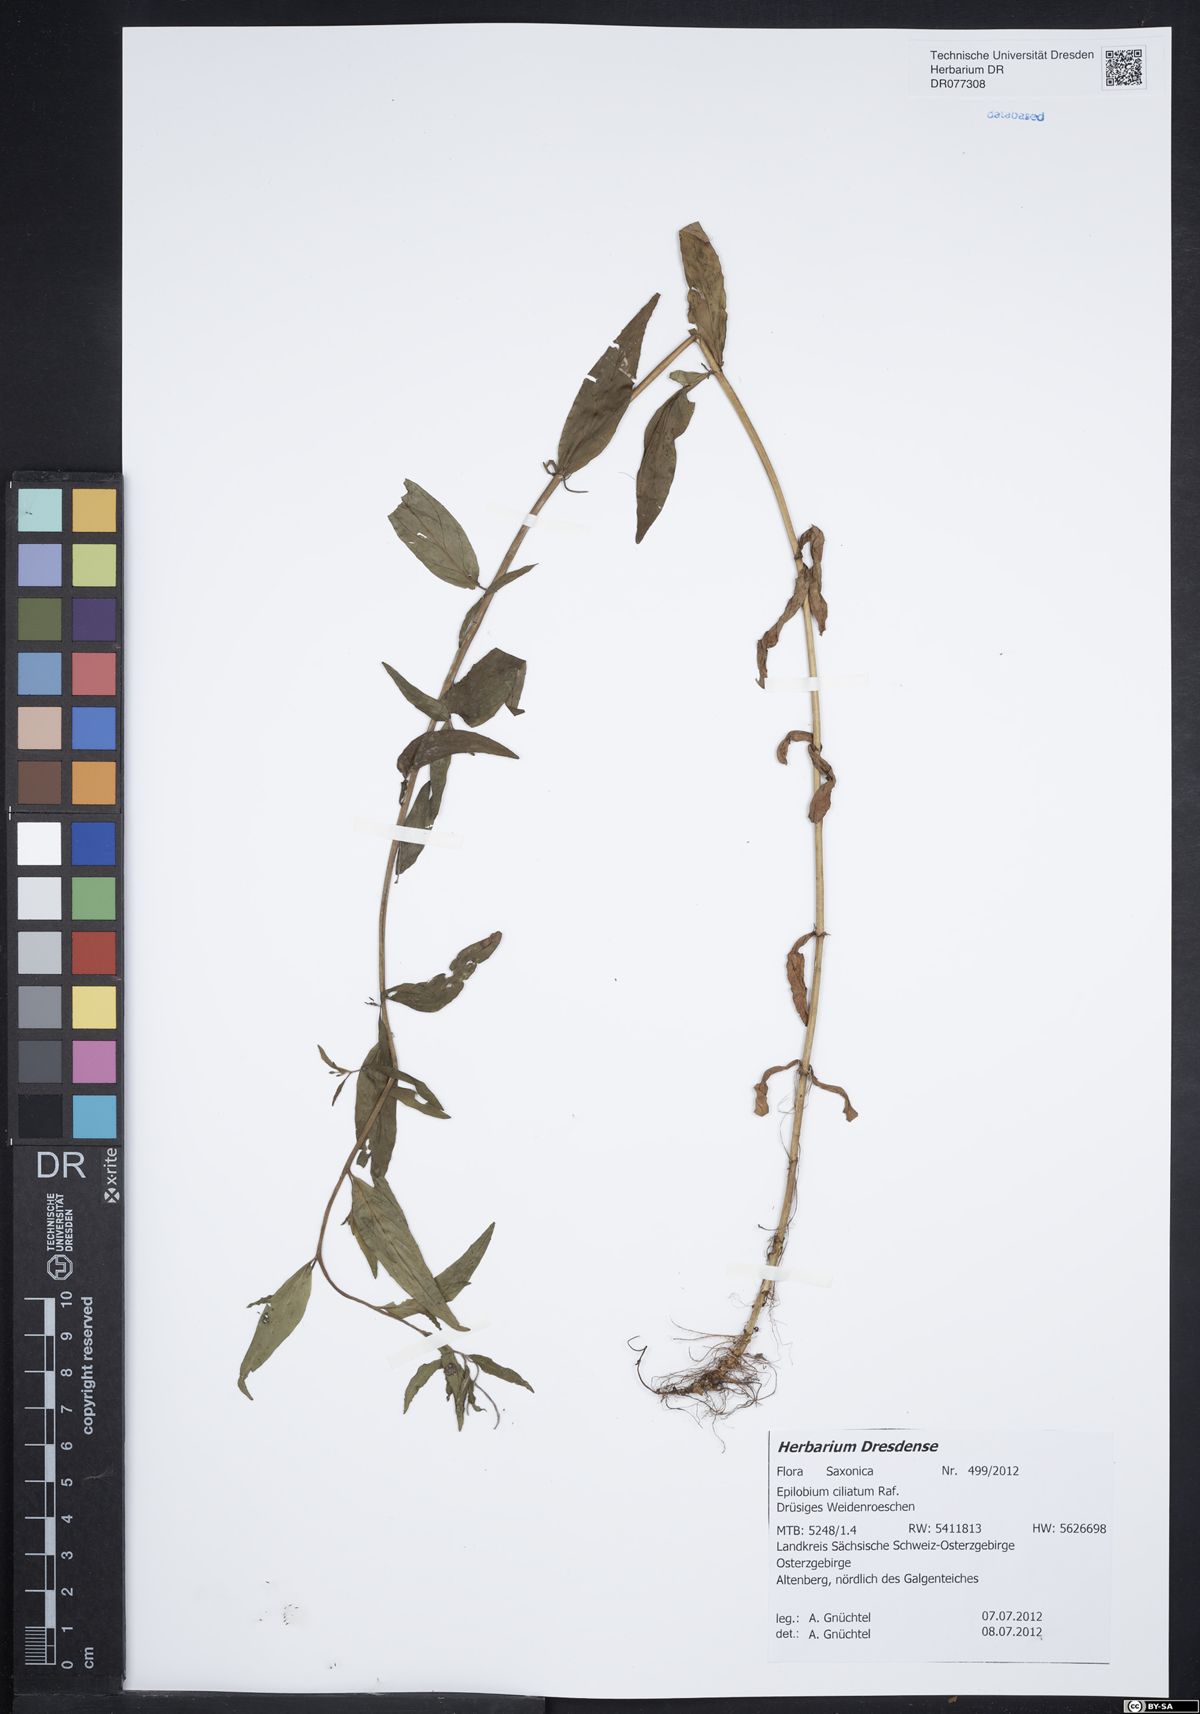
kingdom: Plantae
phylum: Tracheophyta
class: Magnoliopsida
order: Myrtales
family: Onagraceae
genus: Epilobium
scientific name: Epilobium ciliatum
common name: American willowherb
